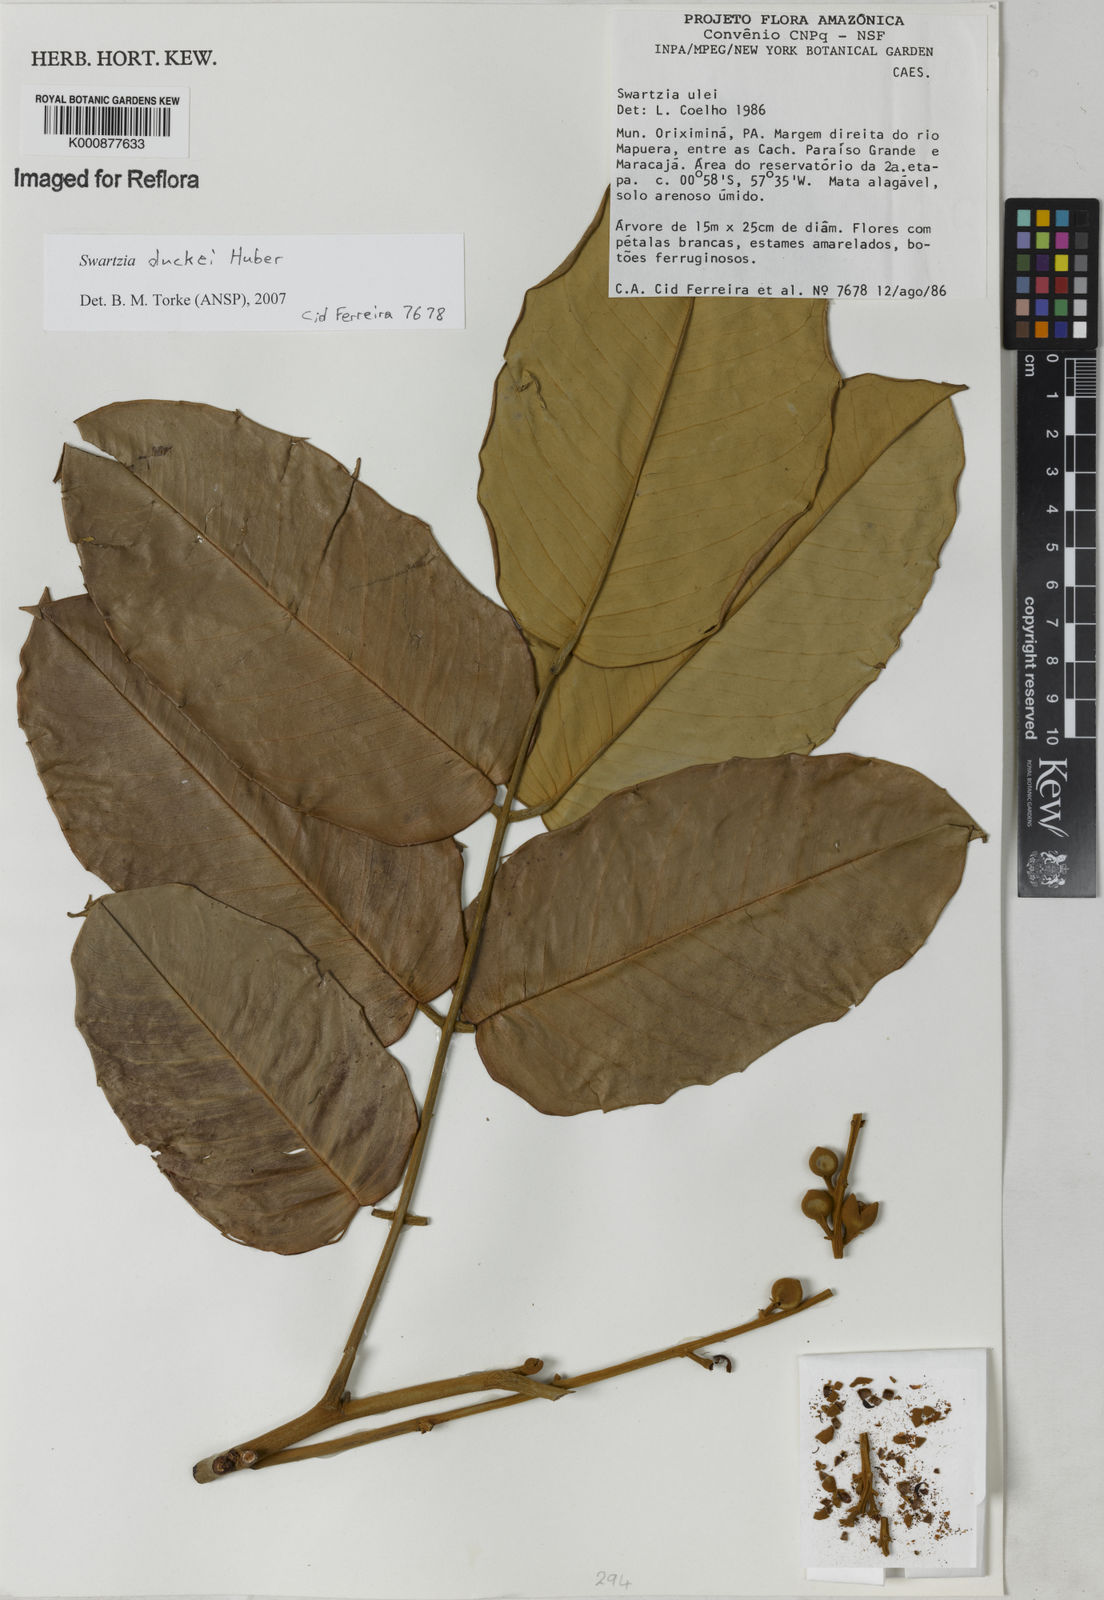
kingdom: Plantae
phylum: Tracheophyta
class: Magnoliopsida
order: Fabales
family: Fabaceae
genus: Swartzia
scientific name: Swartzia duckei
